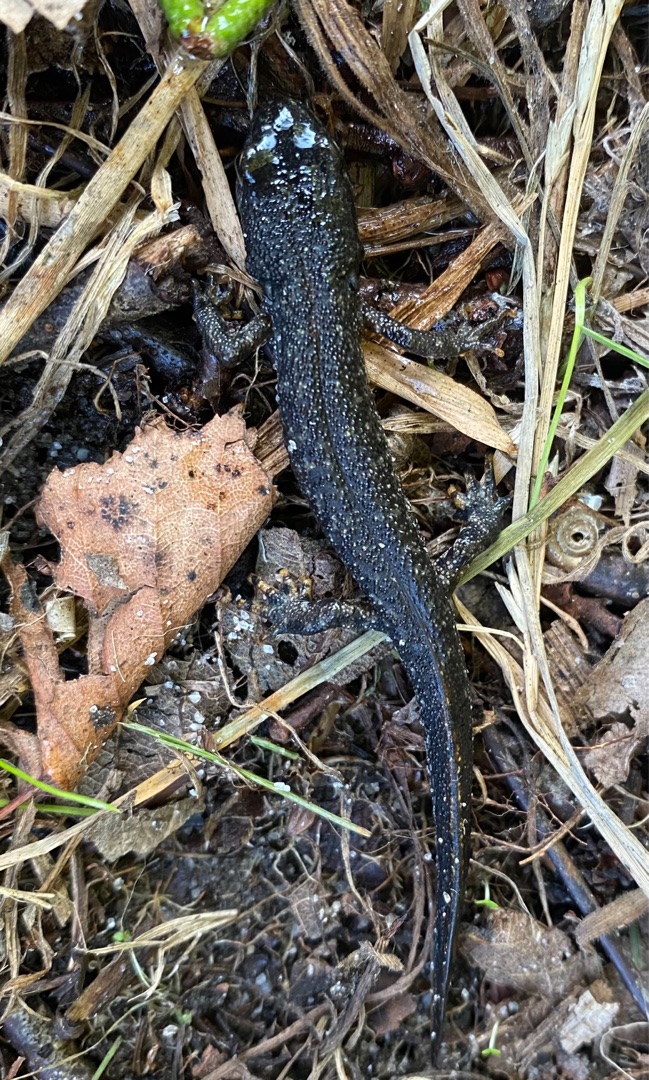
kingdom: Animalia
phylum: Chordata
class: Amphibia
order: Caudata
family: Salamandridae
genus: Triturus
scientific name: Triturus cristatus
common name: Stor vandsalamander
